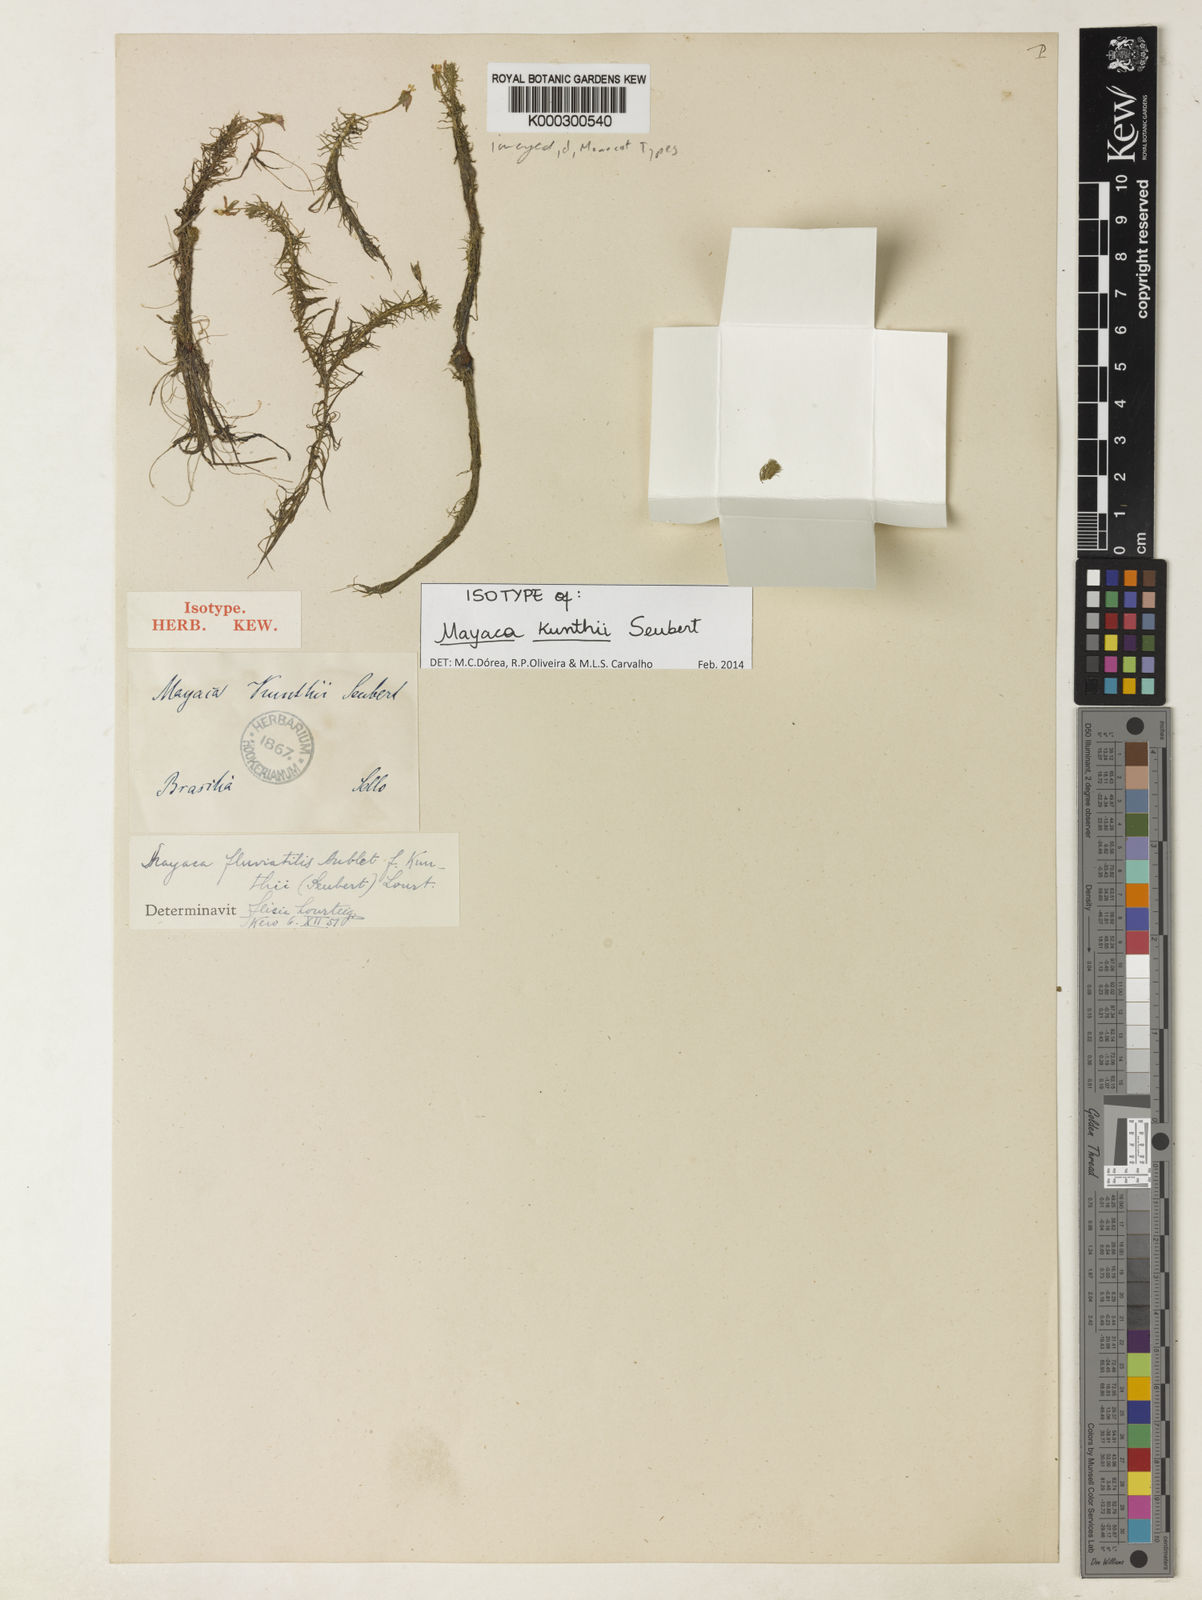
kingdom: Plantae
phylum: Tracheophyta
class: Liliopsida
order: Poales
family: Mayacaceae
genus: Mayaca
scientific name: Mayaca kunthii
